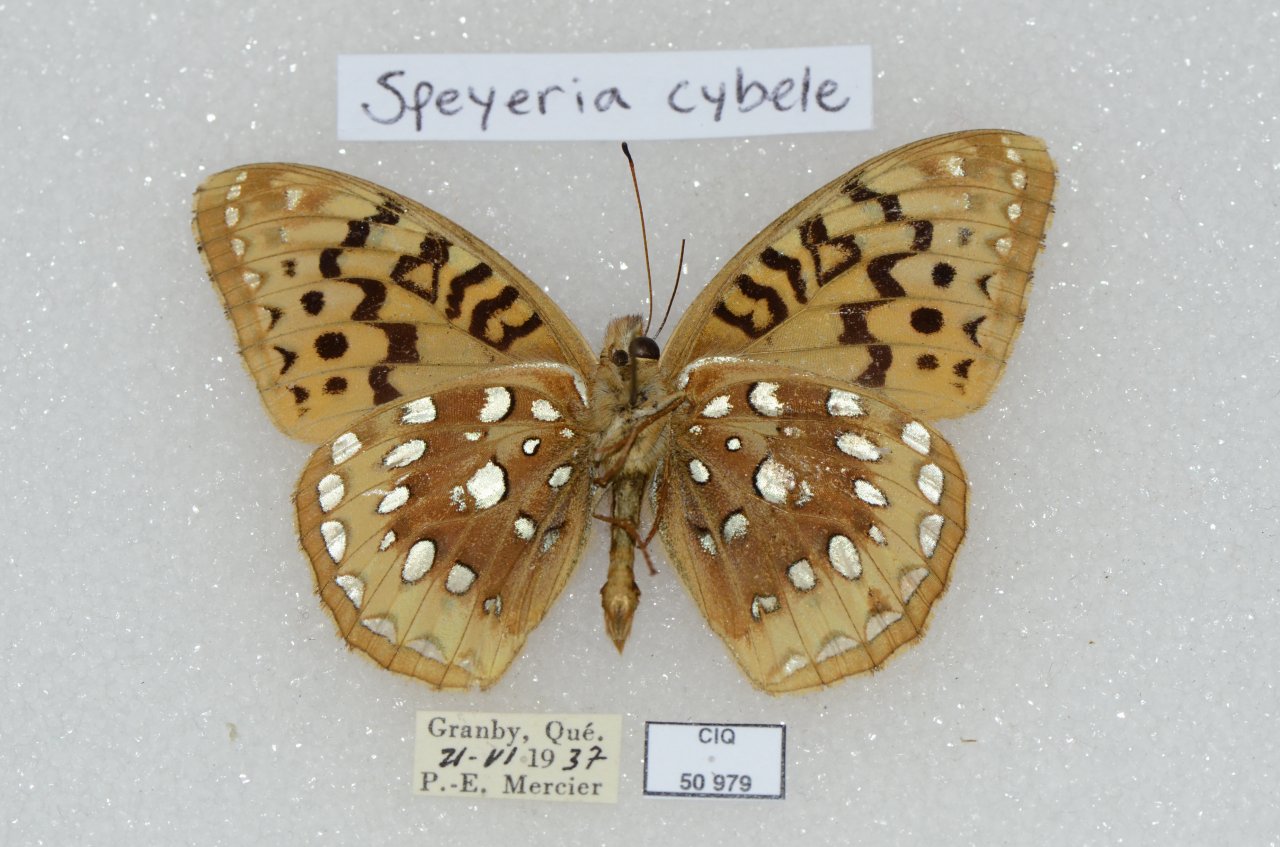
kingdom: Animalia
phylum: Arthropoda
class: Insecta
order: Lepidoptera
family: Nymphalidae
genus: Speyeria
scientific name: Speyeria cybele
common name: Great Spangled Fritillary
